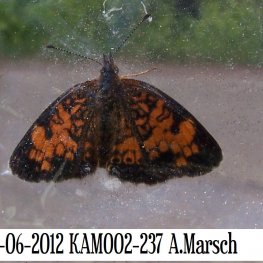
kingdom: Animalia
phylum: Arthropoda
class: Insecta
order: Lepidoptera
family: Nymphalidae
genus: Phyciodes
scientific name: Phyciodes tharos
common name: Northern Crescent
